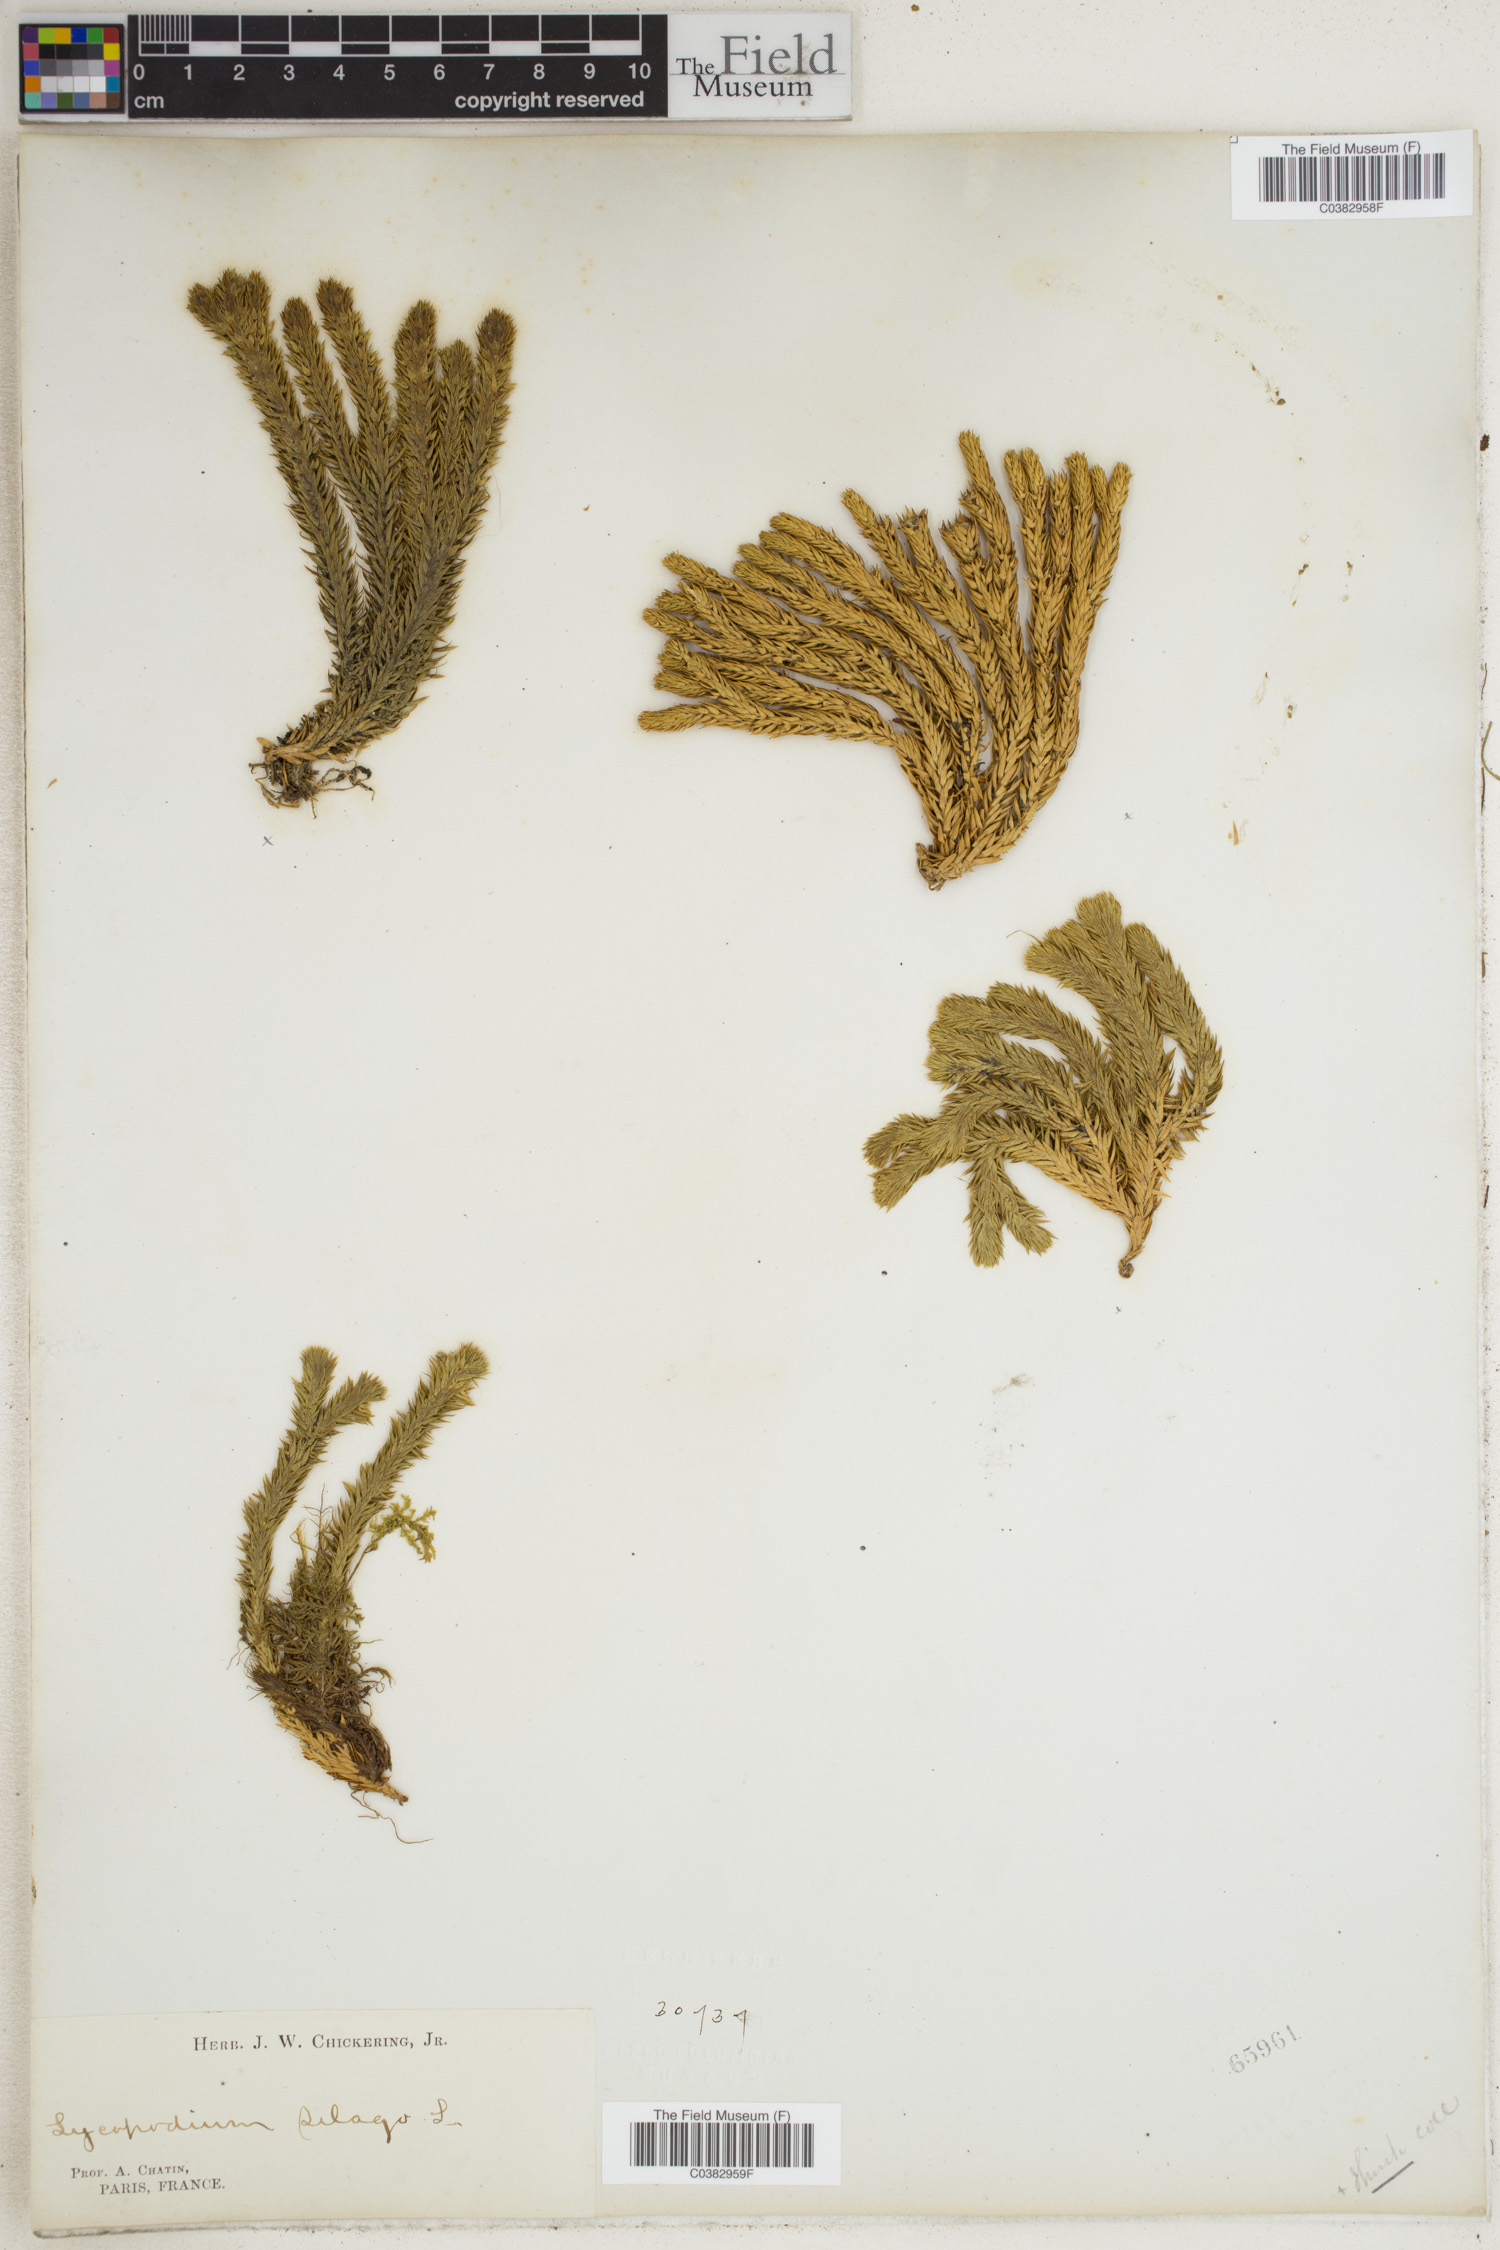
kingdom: Plantae
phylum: Tracheophyta
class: Lycopodiopsida
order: Lycopodiales
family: Lycopodiaceae
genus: Huperzia
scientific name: Huperzia selago
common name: Northern firmoss
